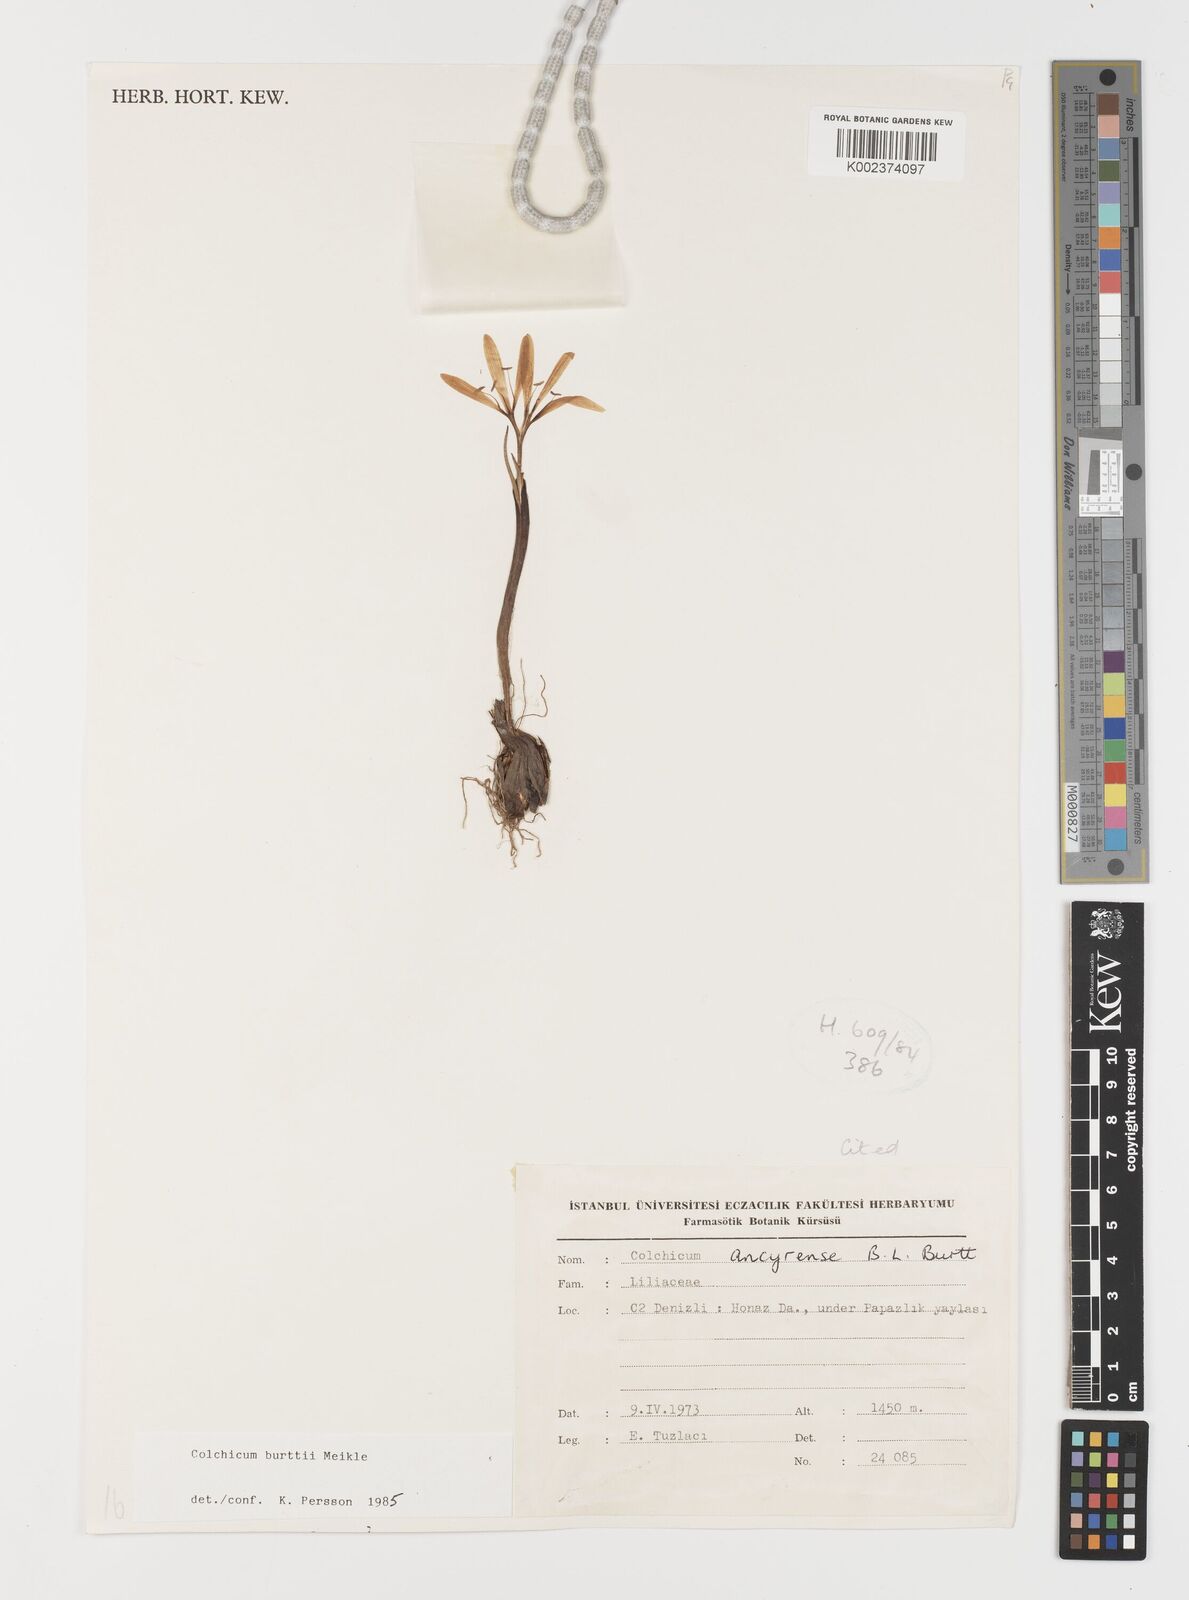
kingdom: Plantae
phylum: Tracheophyta
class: Liliopsida
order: Liliales
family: Colchicaceae
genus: Colchicum
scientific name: Colchicum burttii
